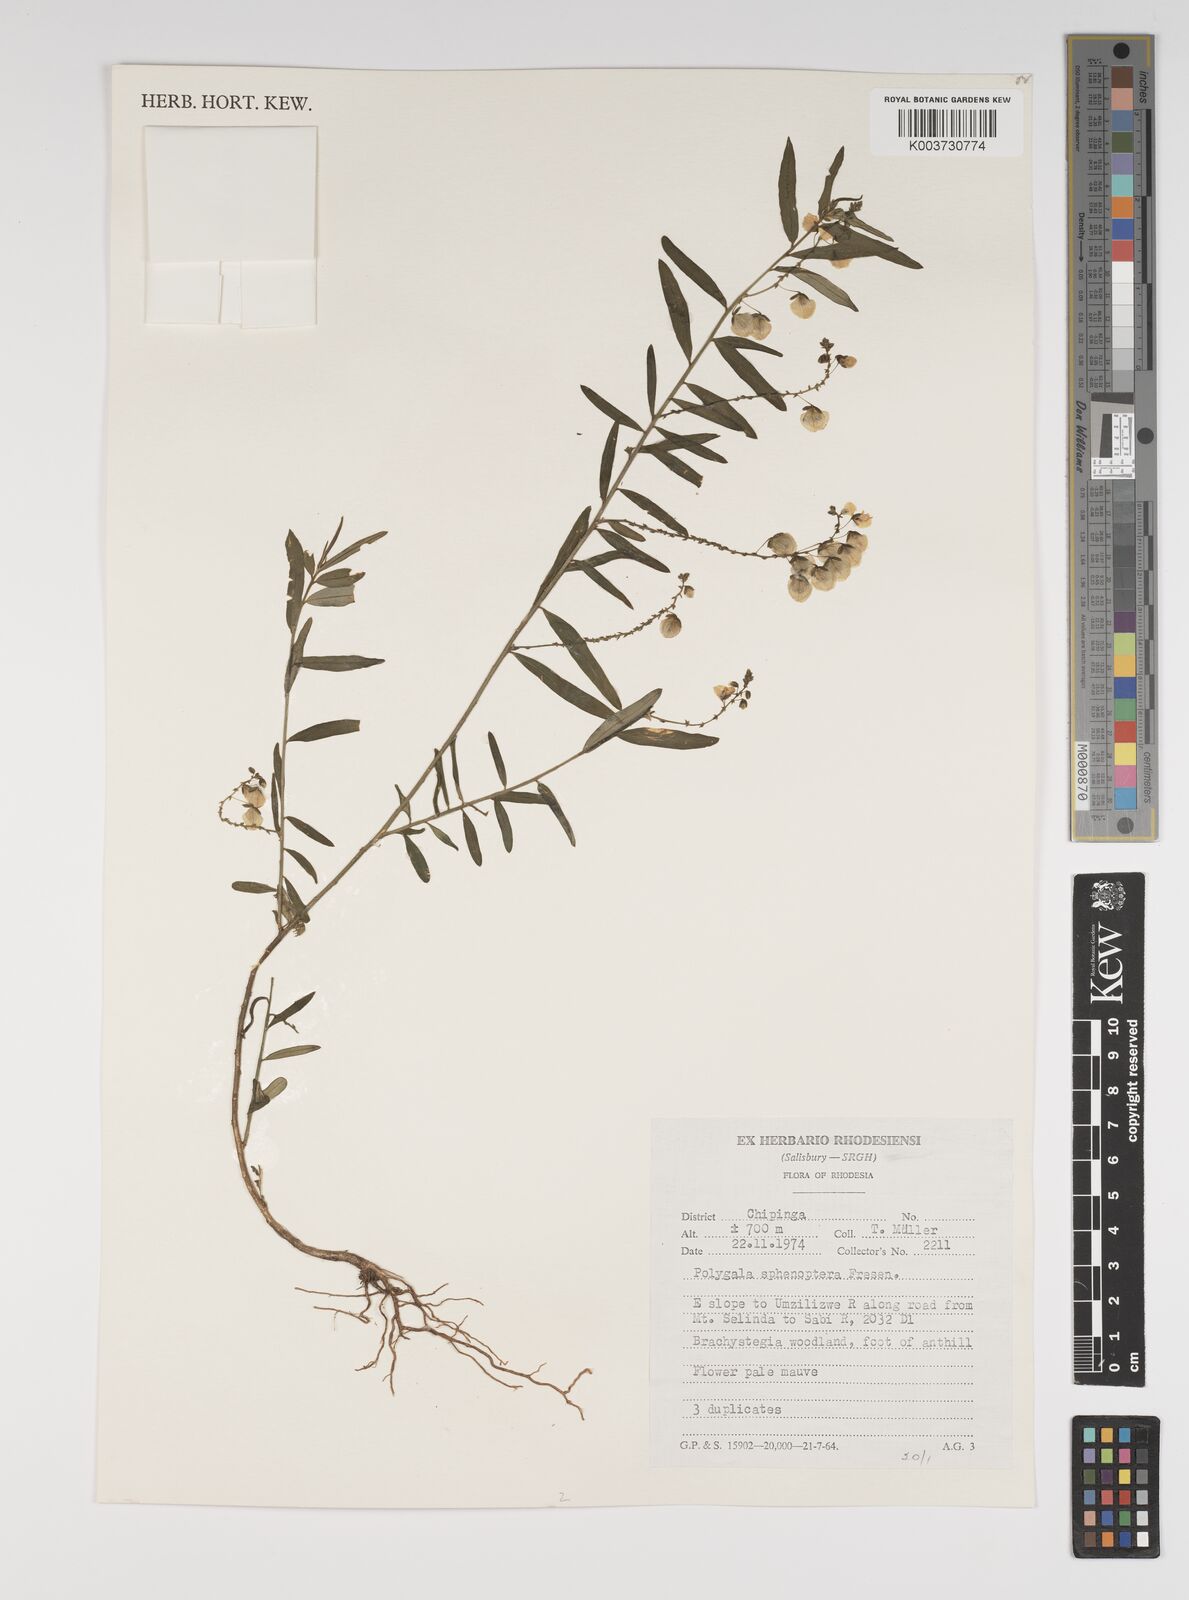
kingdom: Plantae
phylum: Tracheophyta
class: Magnoliopsida
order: Fabales
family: Polygalaceae
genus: Polygala
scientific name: Polygala sphenoptera
